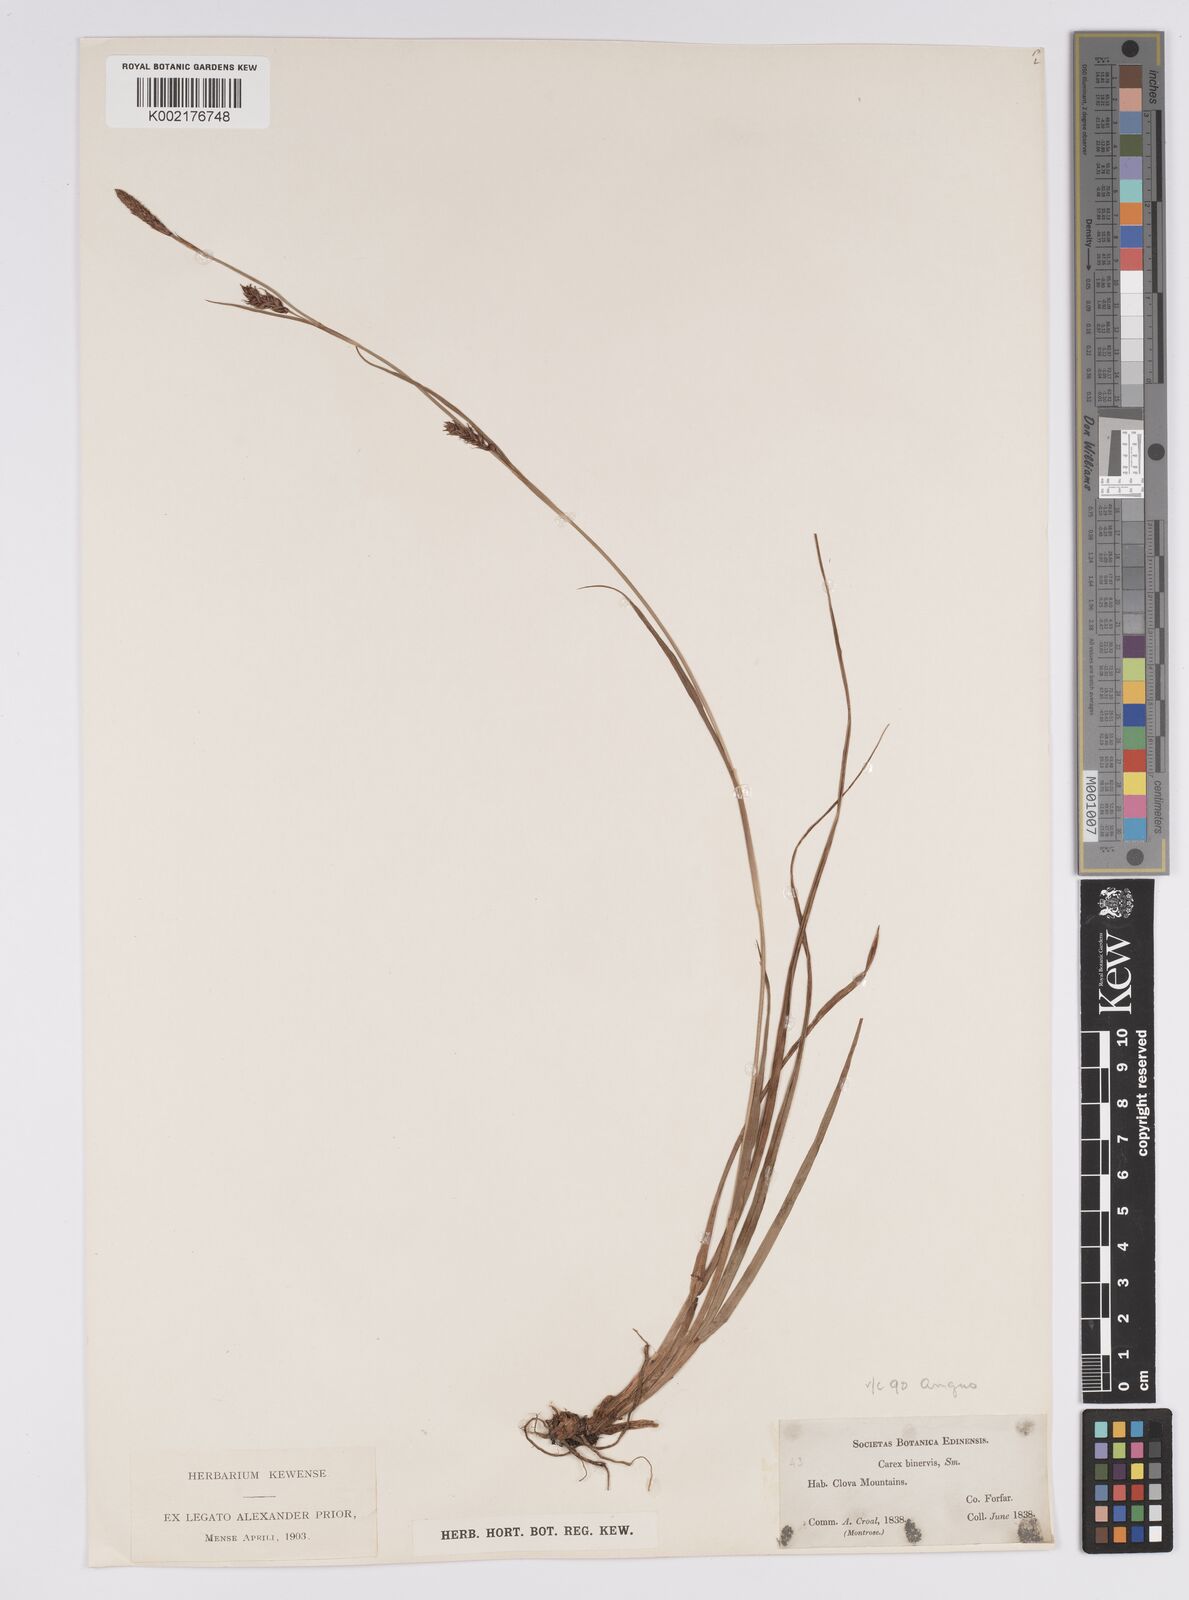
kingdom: Plantae
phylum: Tracheophyta
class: Liliopsida
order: Poales
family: Cyperaceae
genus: Carex
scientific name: Carex binervis
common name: Green-ribbed sedge
